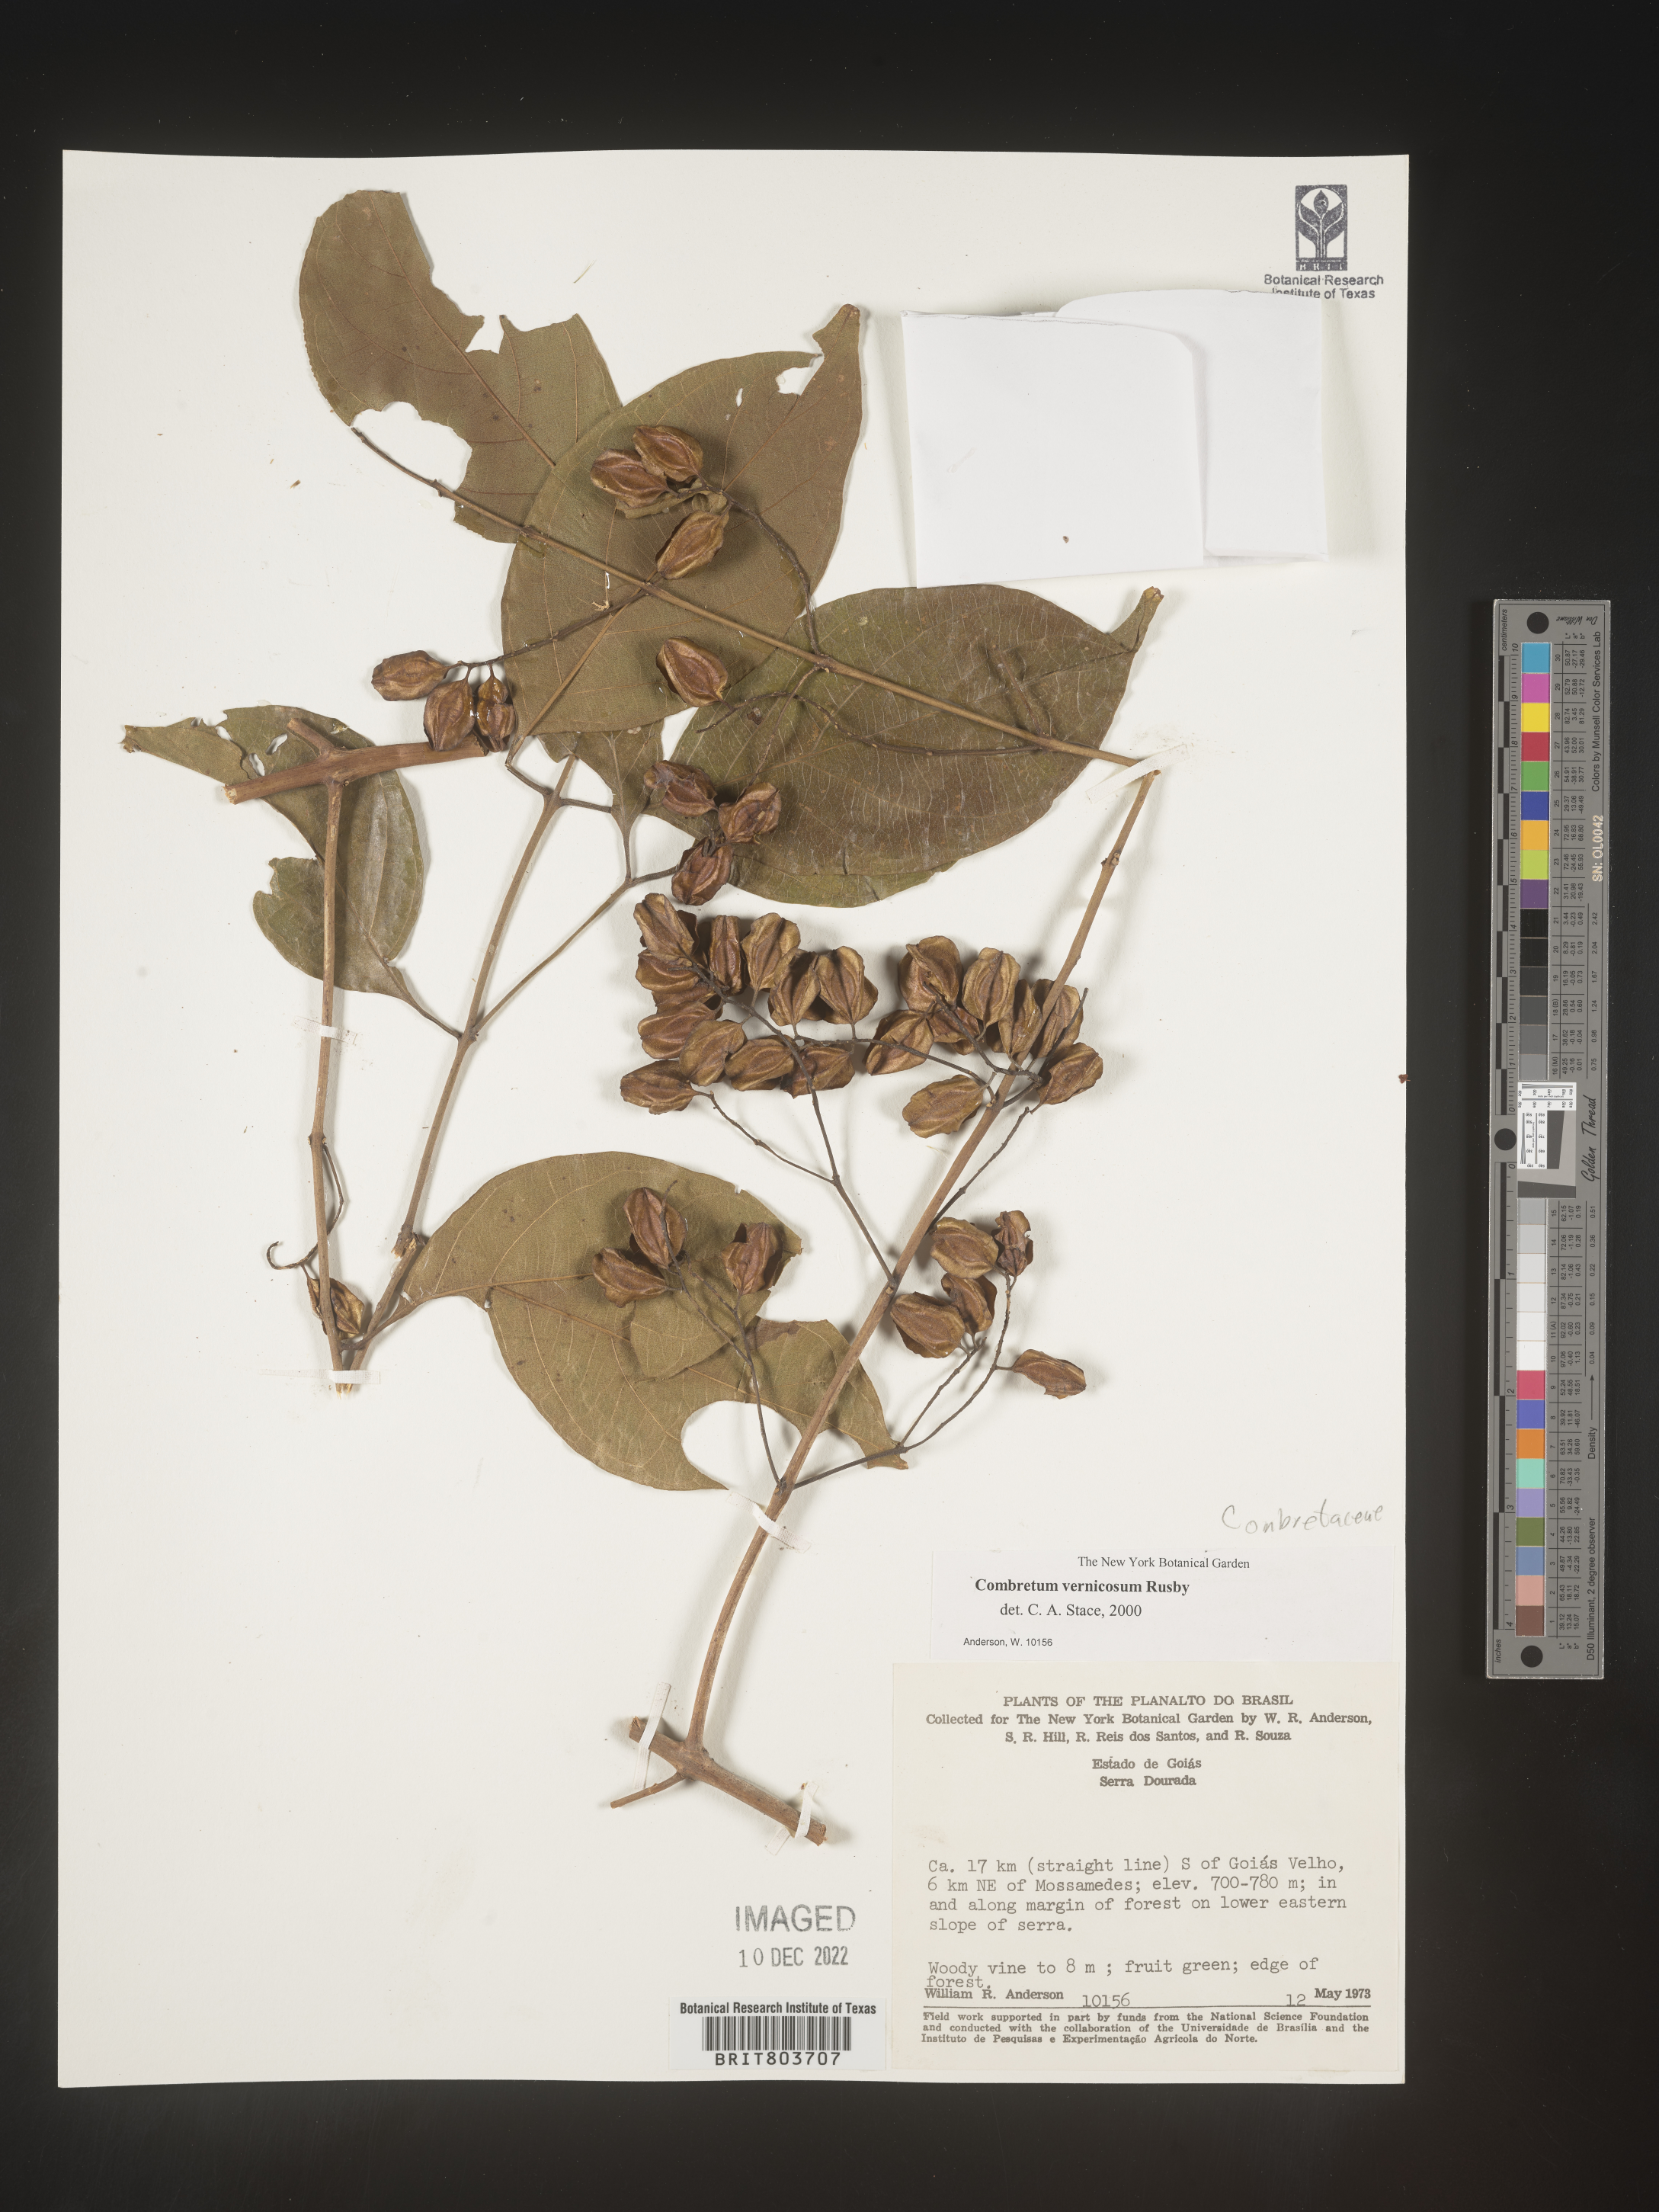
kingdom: Plantae
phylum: Tracheophyta
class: Magnoliopsida
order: Myrtales
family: Combretaceae
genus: Combretum
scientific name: Combretum
